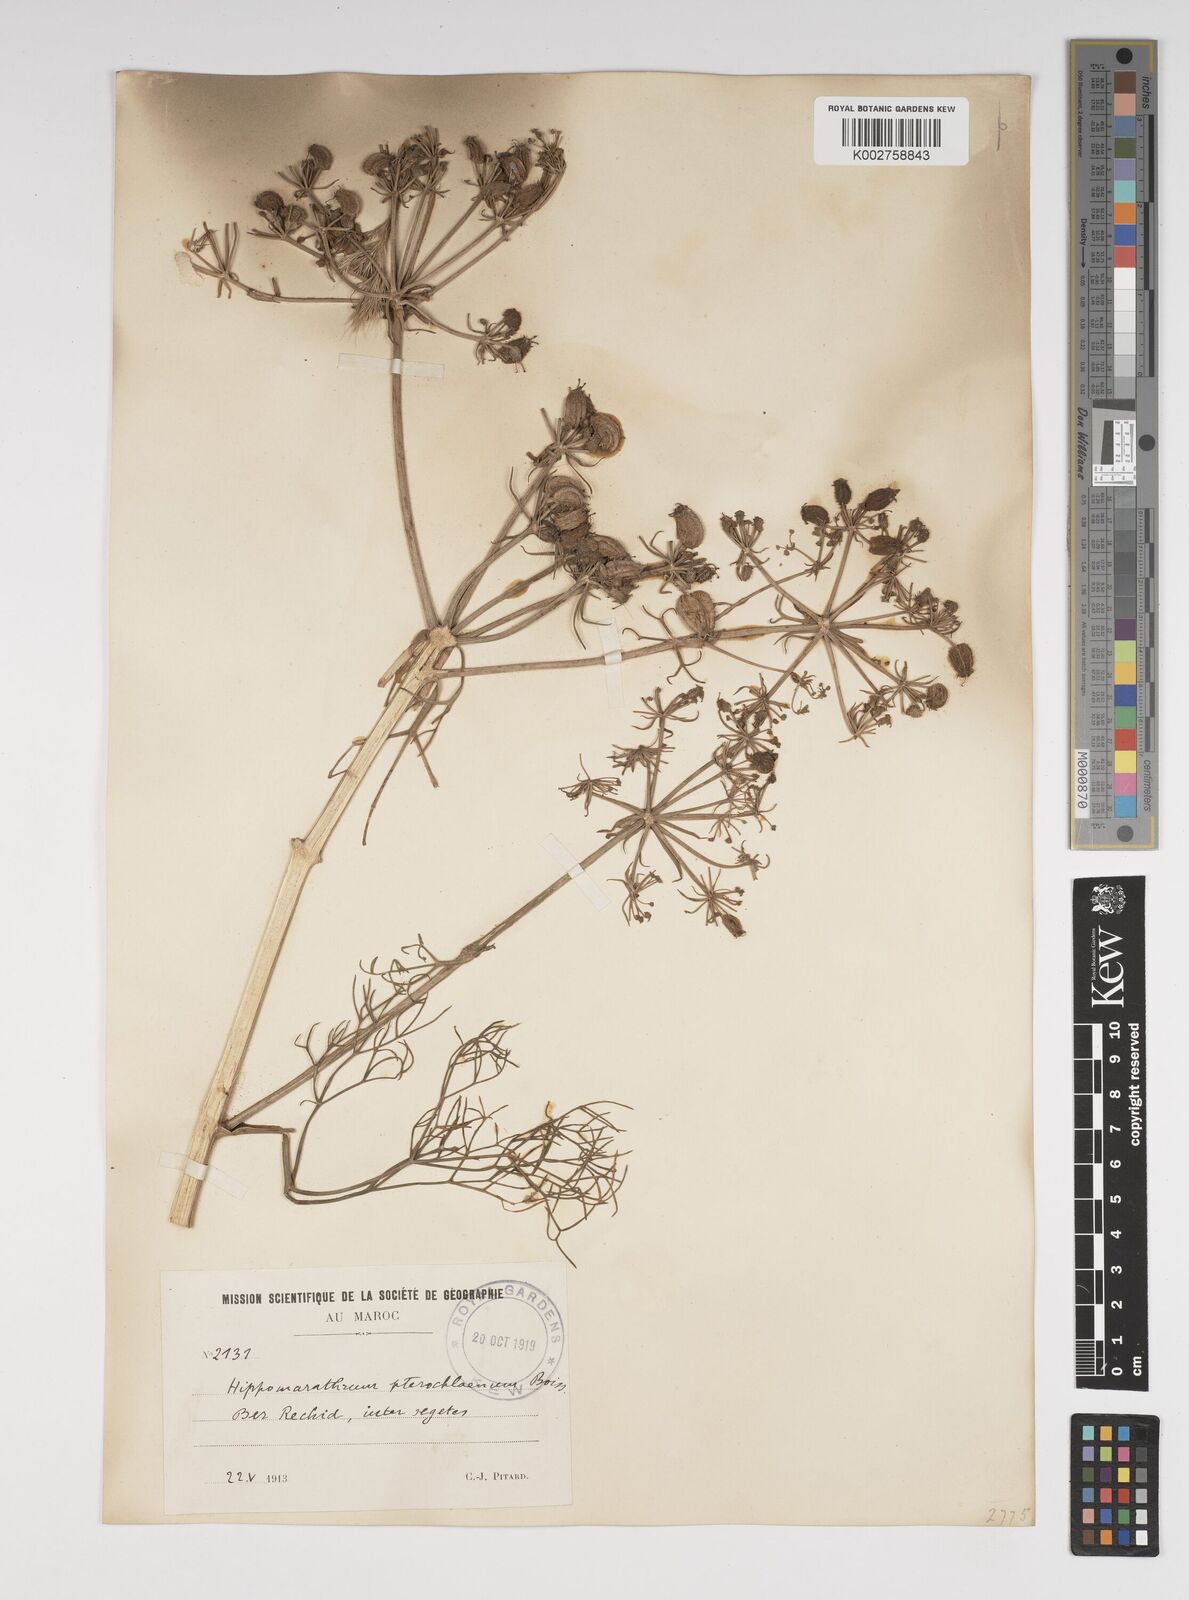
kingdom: Plantae
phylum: Tracheophyta
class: Magnoliopsida
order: Apiales
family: Apiaceae
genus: Cachrys
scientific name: Cachrys sicula
